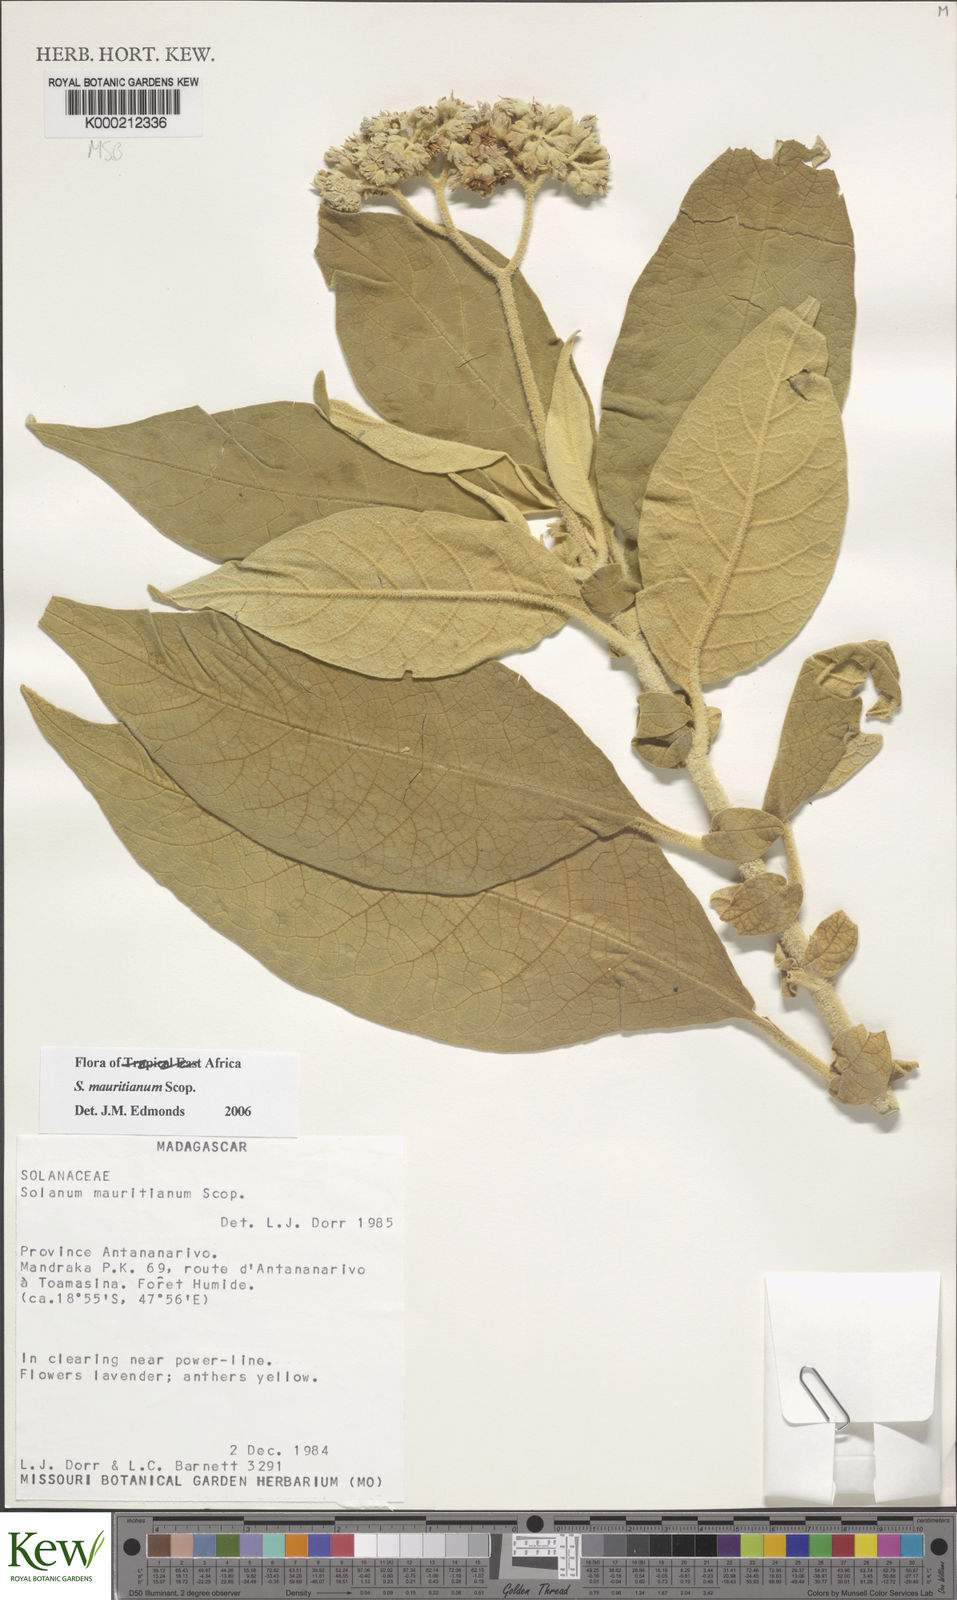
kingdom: Plantae
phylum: Tracheophyta
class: Magnoliopsida
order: Solanales
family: Solanaceae
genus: Solanum
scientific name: Solanum mauritianum
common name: Earleaf nightshade
